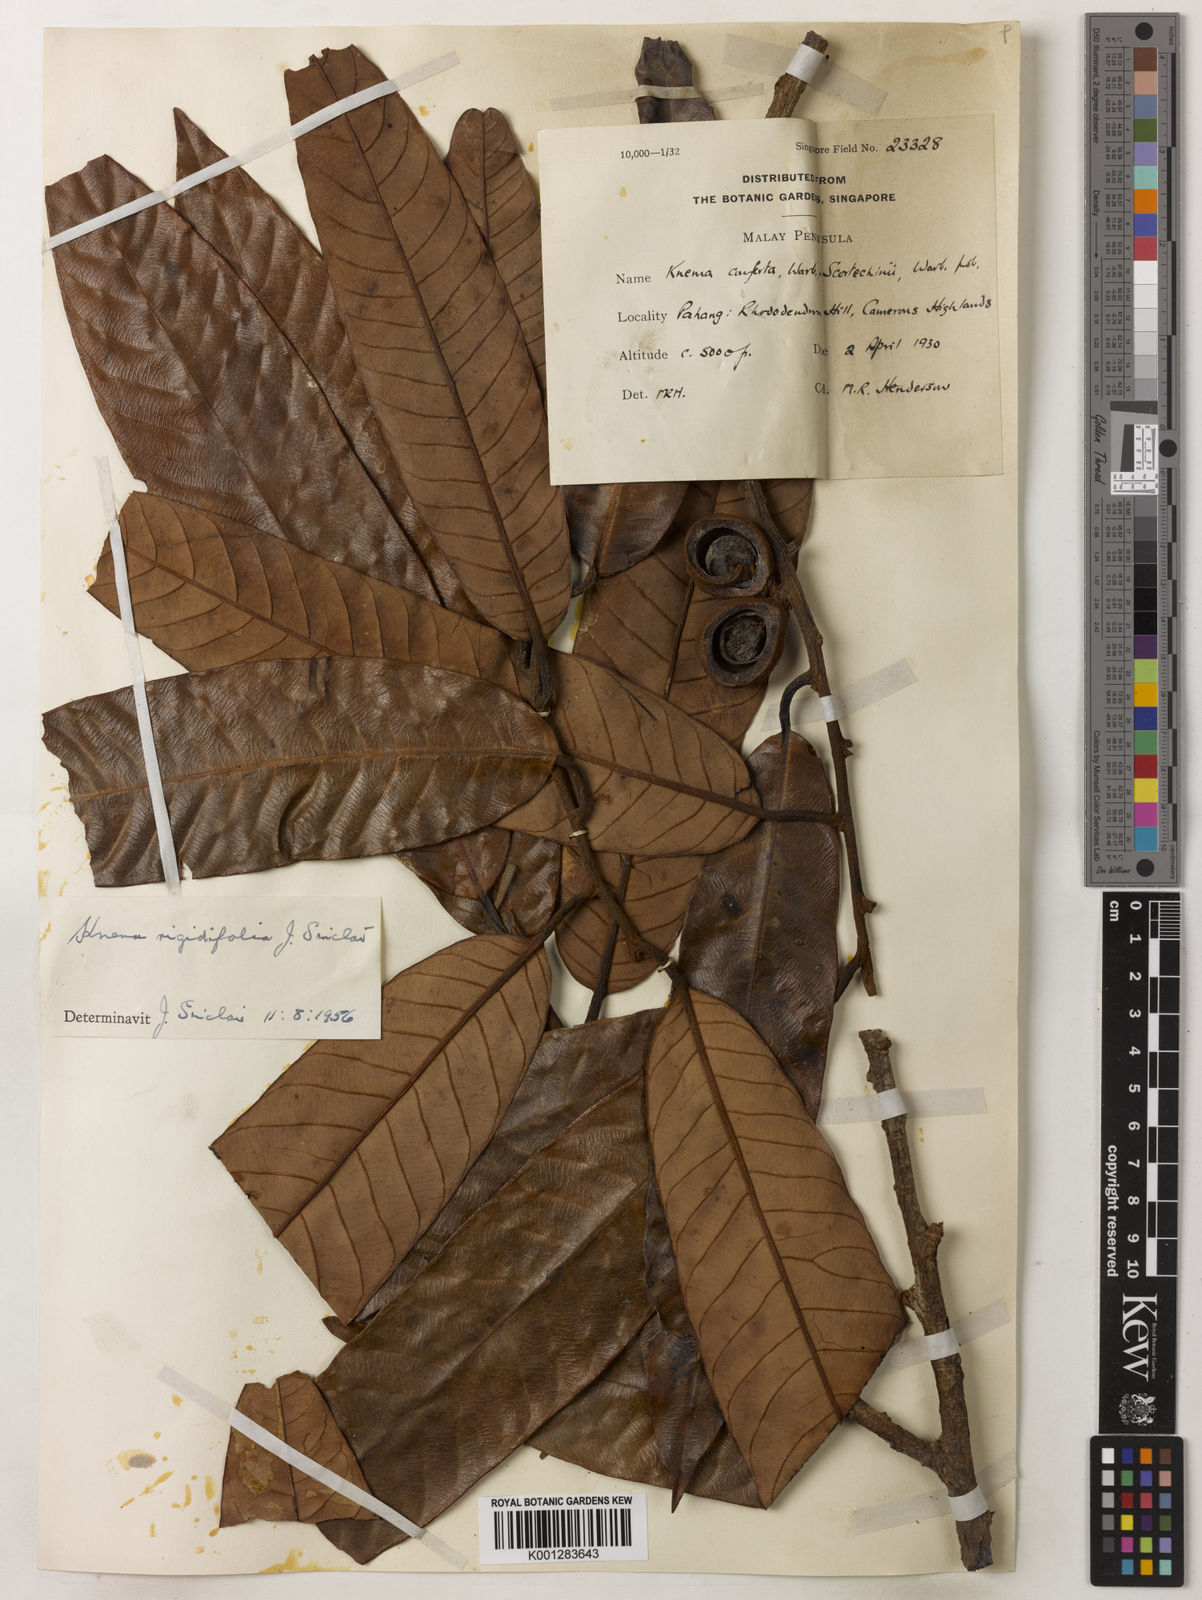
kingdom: Plantae
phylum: Tracheophyta
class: Magnoliopsida
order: Magnoliales
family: Myristicaceae
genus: Knema
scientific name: Knema rigidifolia
